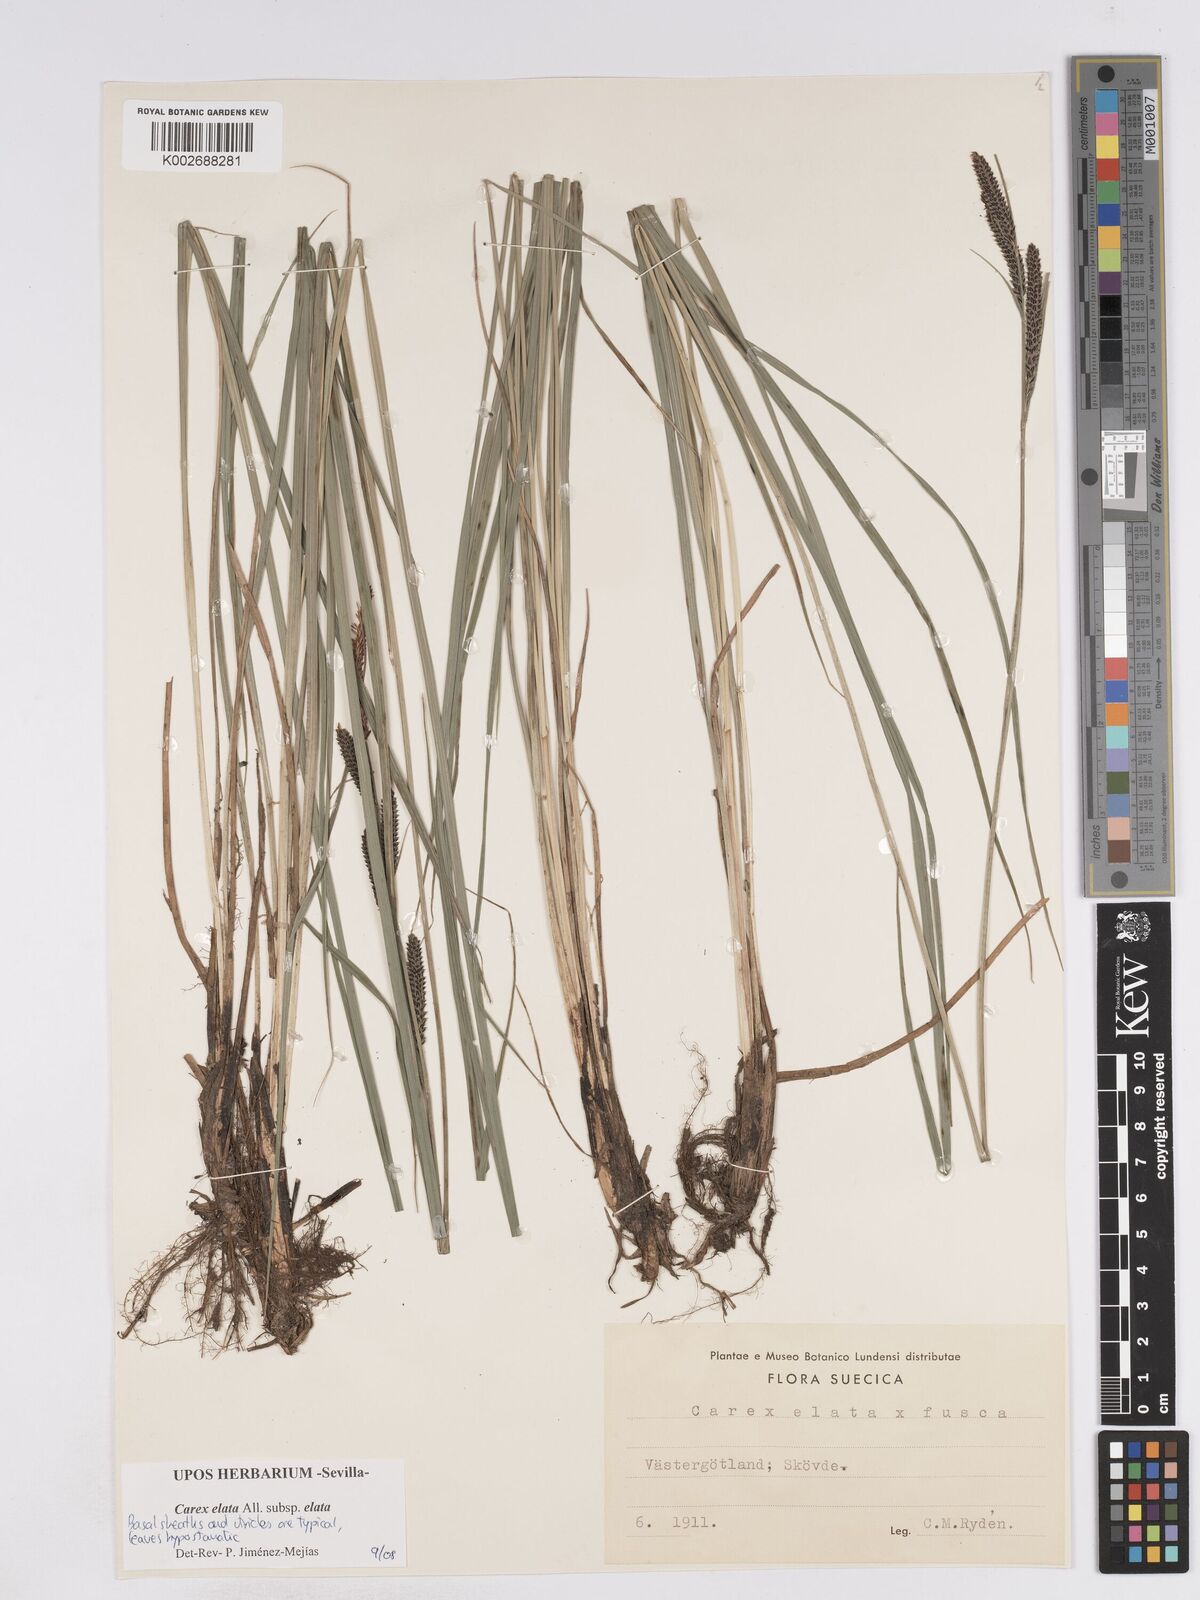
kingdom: Plantae
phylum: Tracheophyta
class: Liliopsida
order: Poales
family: Cyperaceae
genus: Carex
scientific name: Carex elata
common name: Tufted sedge
